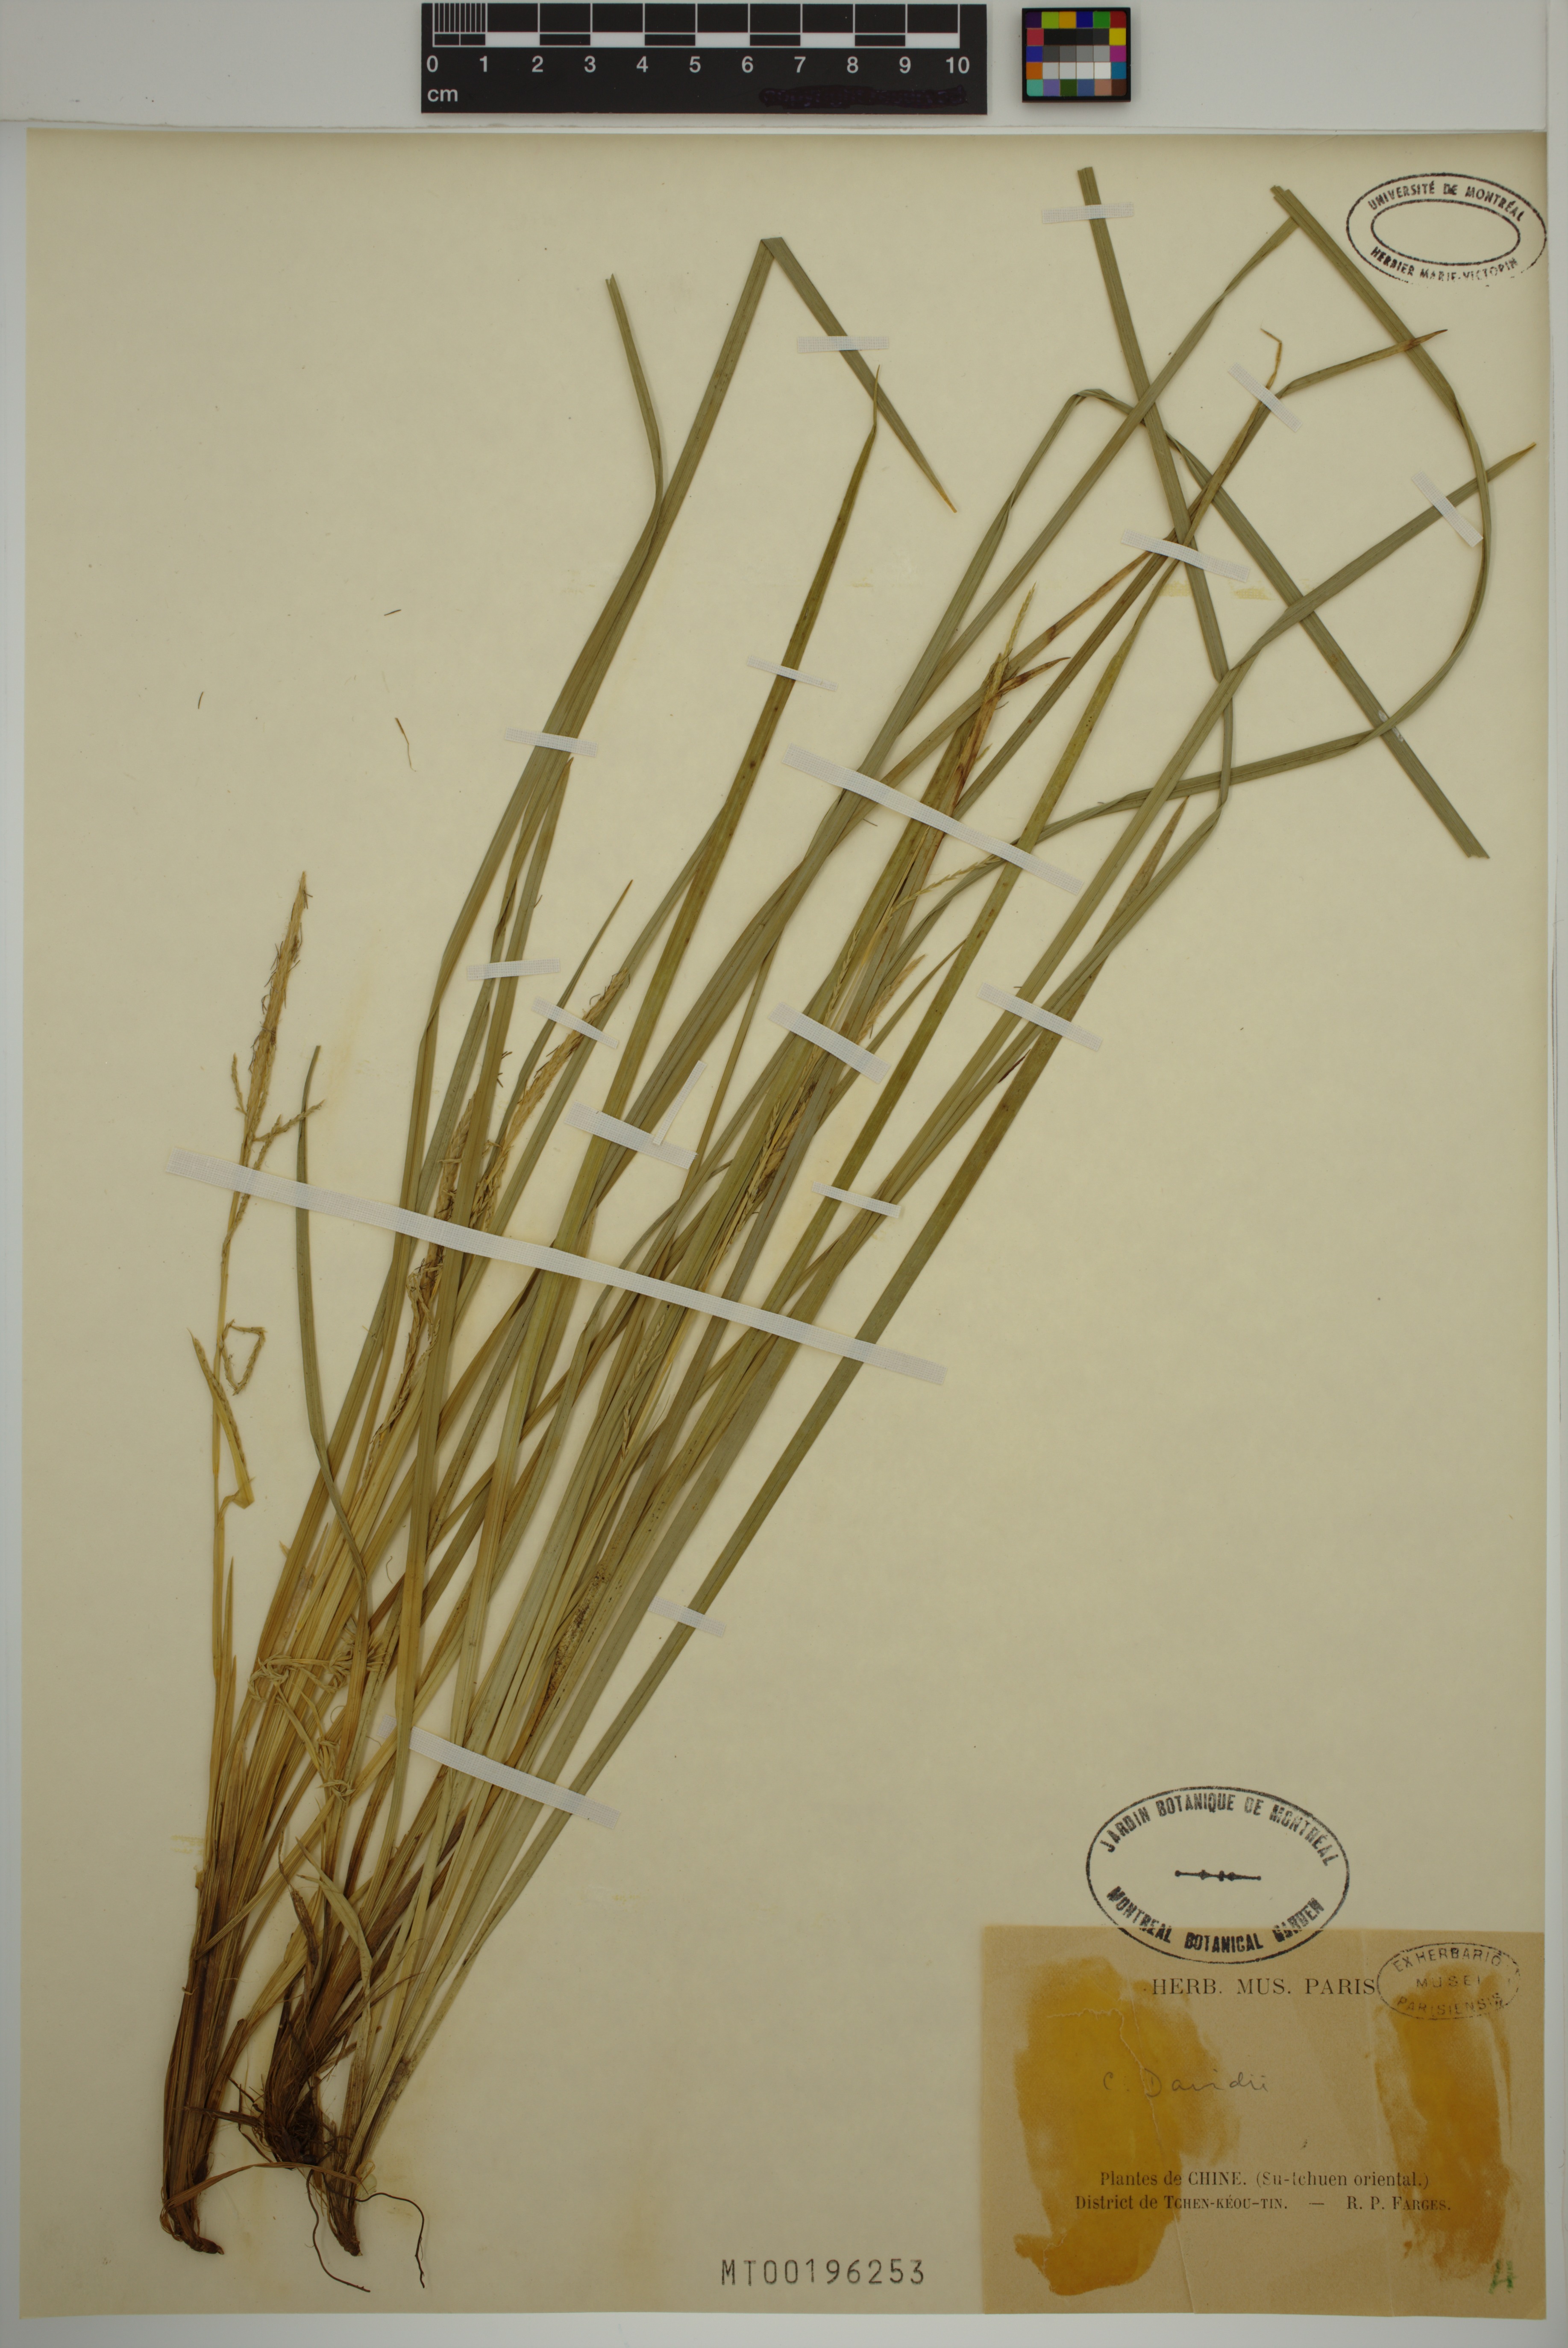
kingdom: Plantae
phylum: Tracheophyta
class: Liliopsida
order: Poales
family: Cyperaceae
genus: Carex
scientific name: Carex davidii
